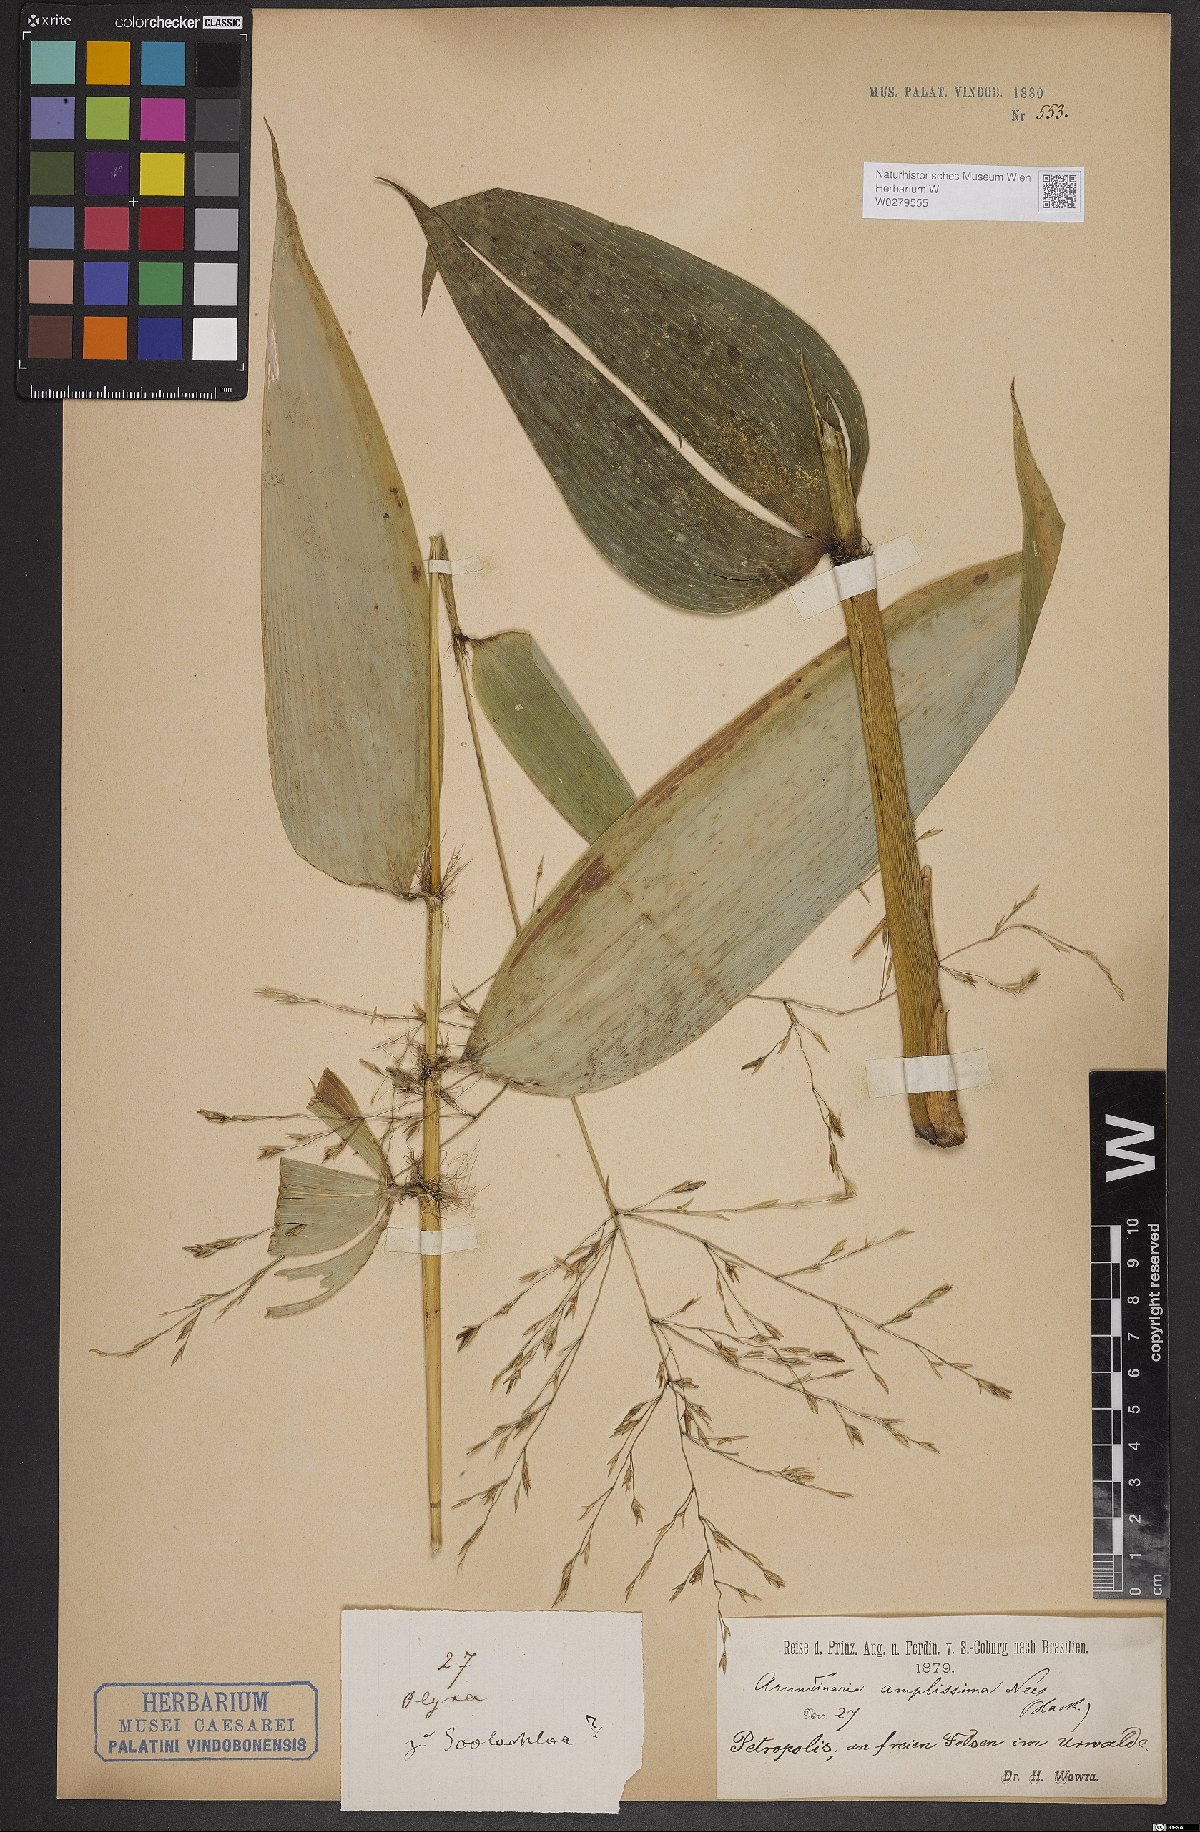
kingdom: Plantae
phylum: Tracheophyta
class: Liliopsida
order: Poales
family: Poaceae
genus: Aulonemia
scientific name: Aulonemia amplissima
